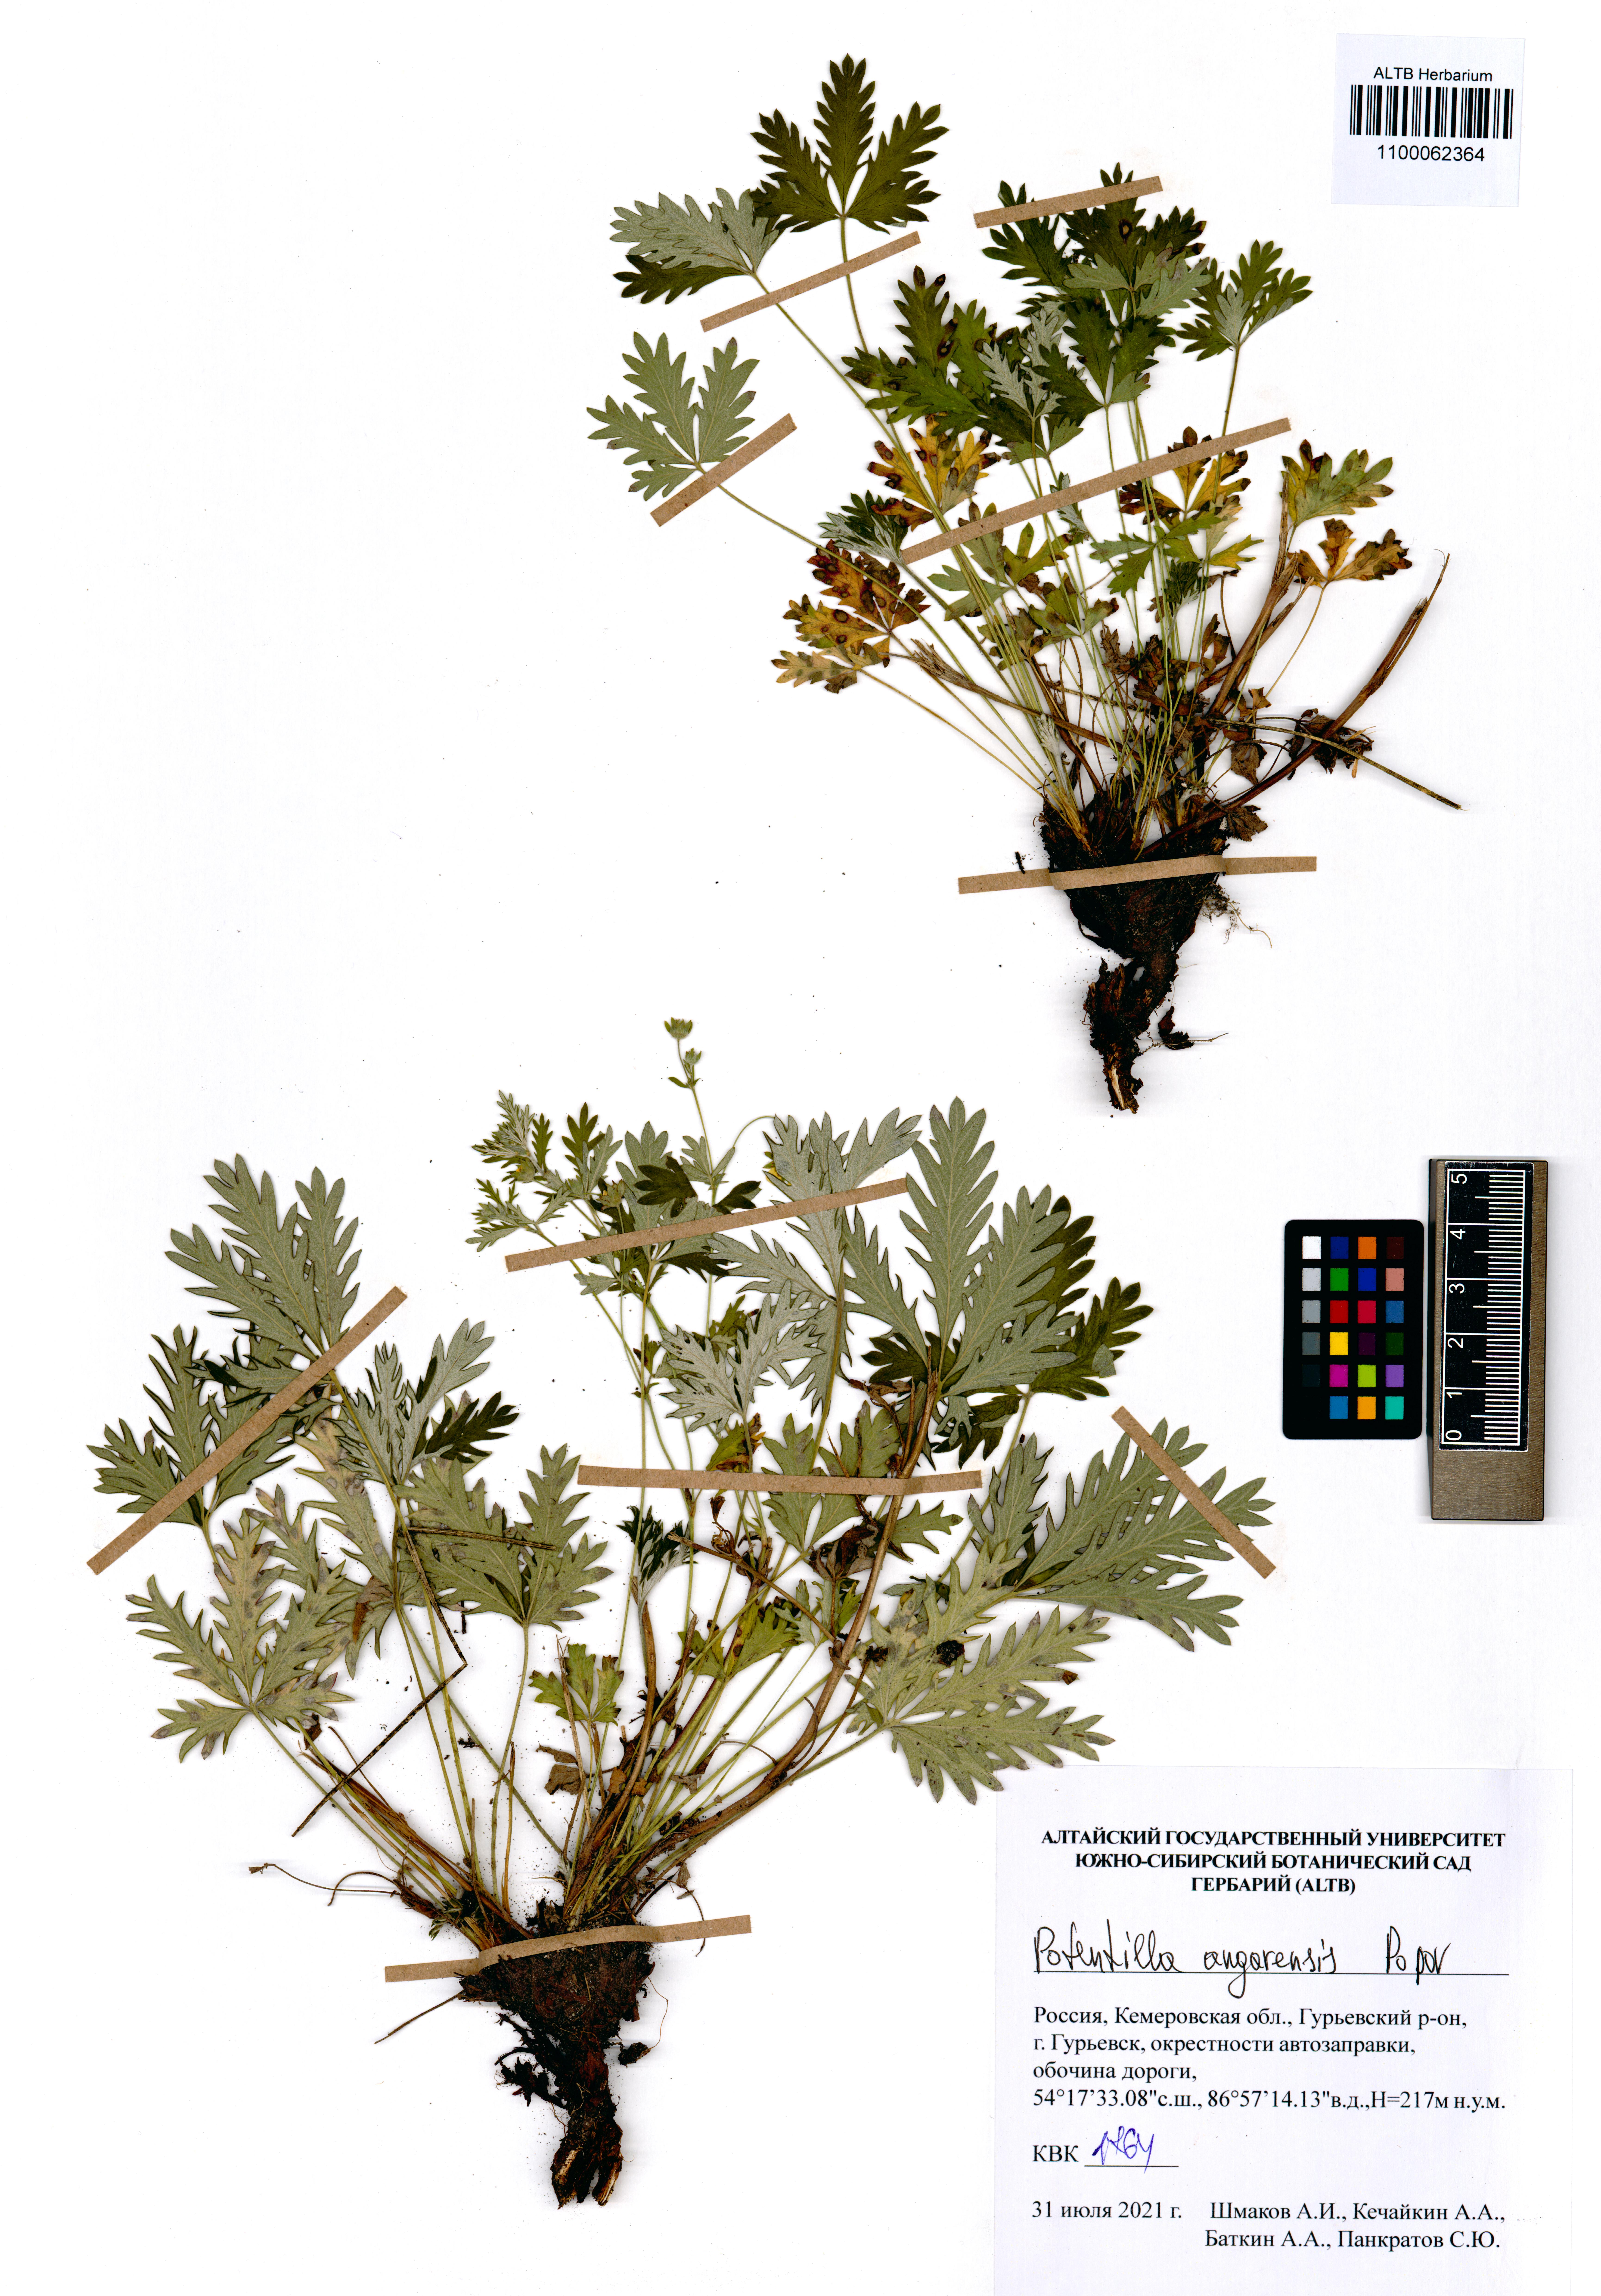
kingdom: Plantae
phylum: Tracheophyta
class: Magnoliopsida
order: Rosales
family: Rosaceae
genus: Potentilla
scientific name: Potentilla angarensis
